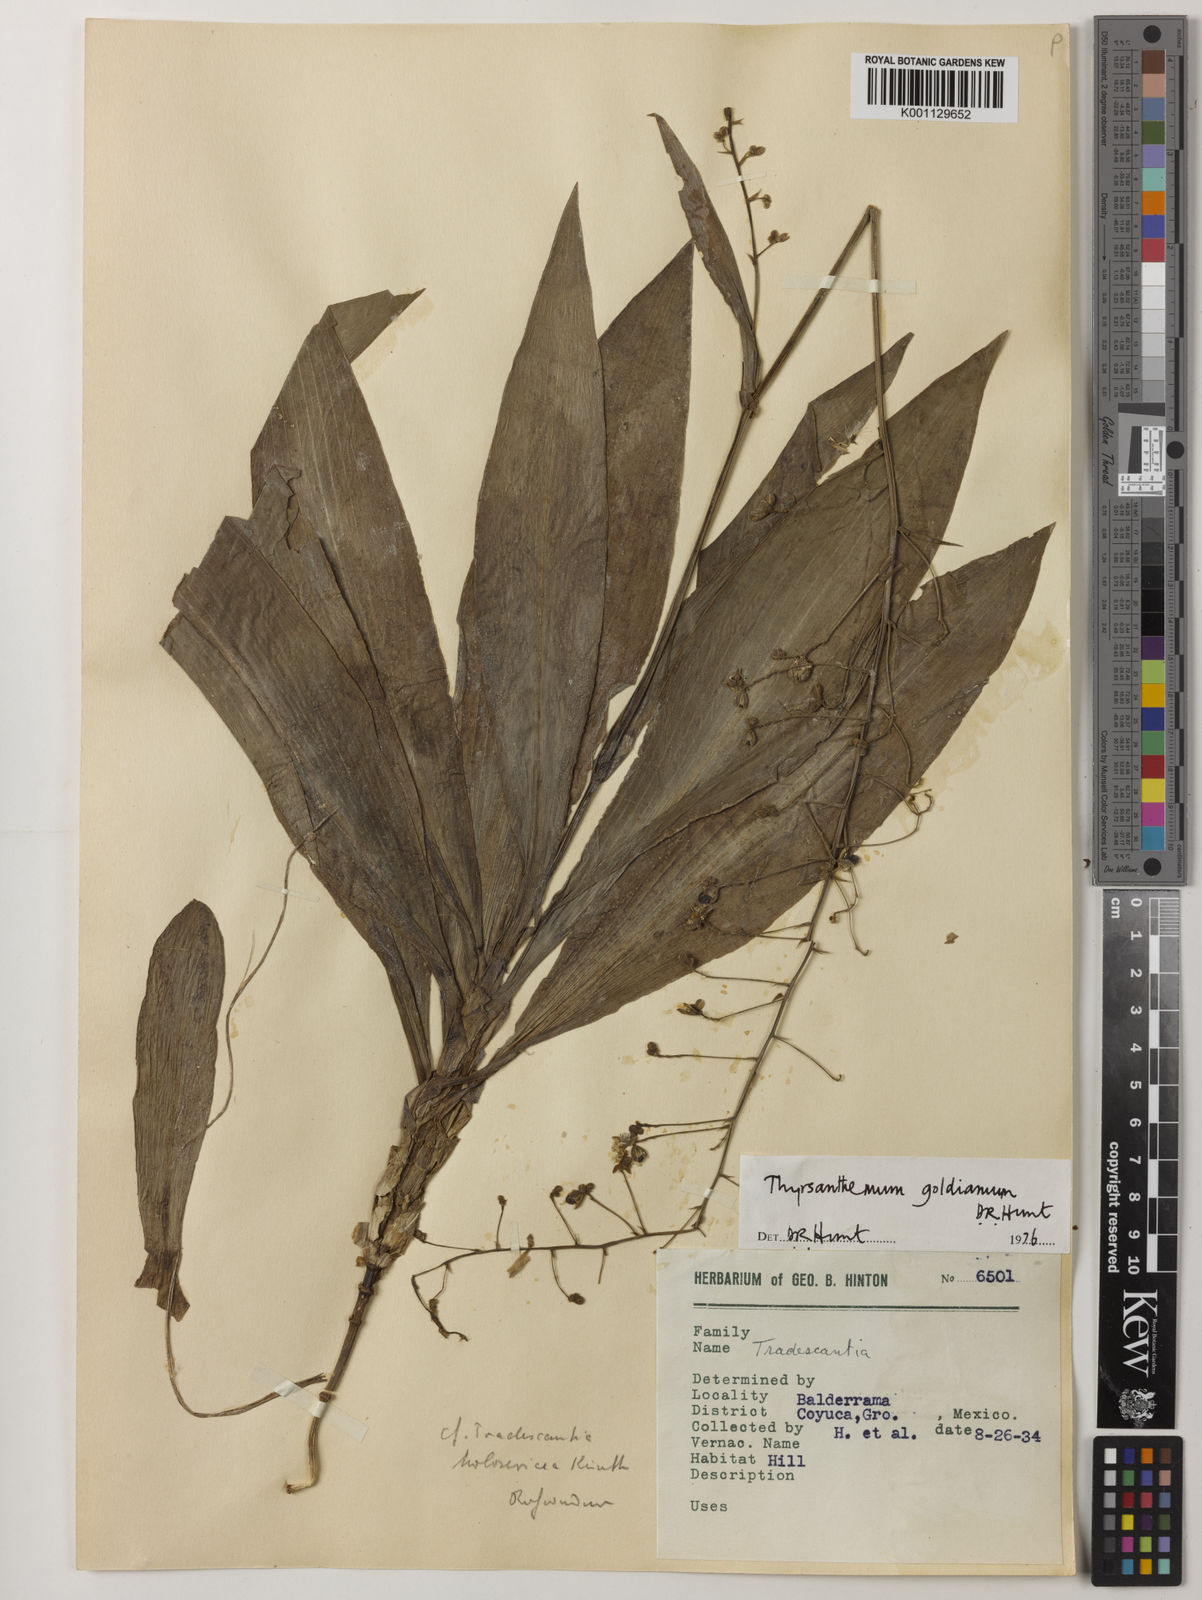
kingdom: Plantae
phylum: Tracheophyta
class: Liliopsida
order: Commelinales
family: Commelinaceae
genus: Thyrsanthemum
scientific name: Thyrsanthemum goldianum
